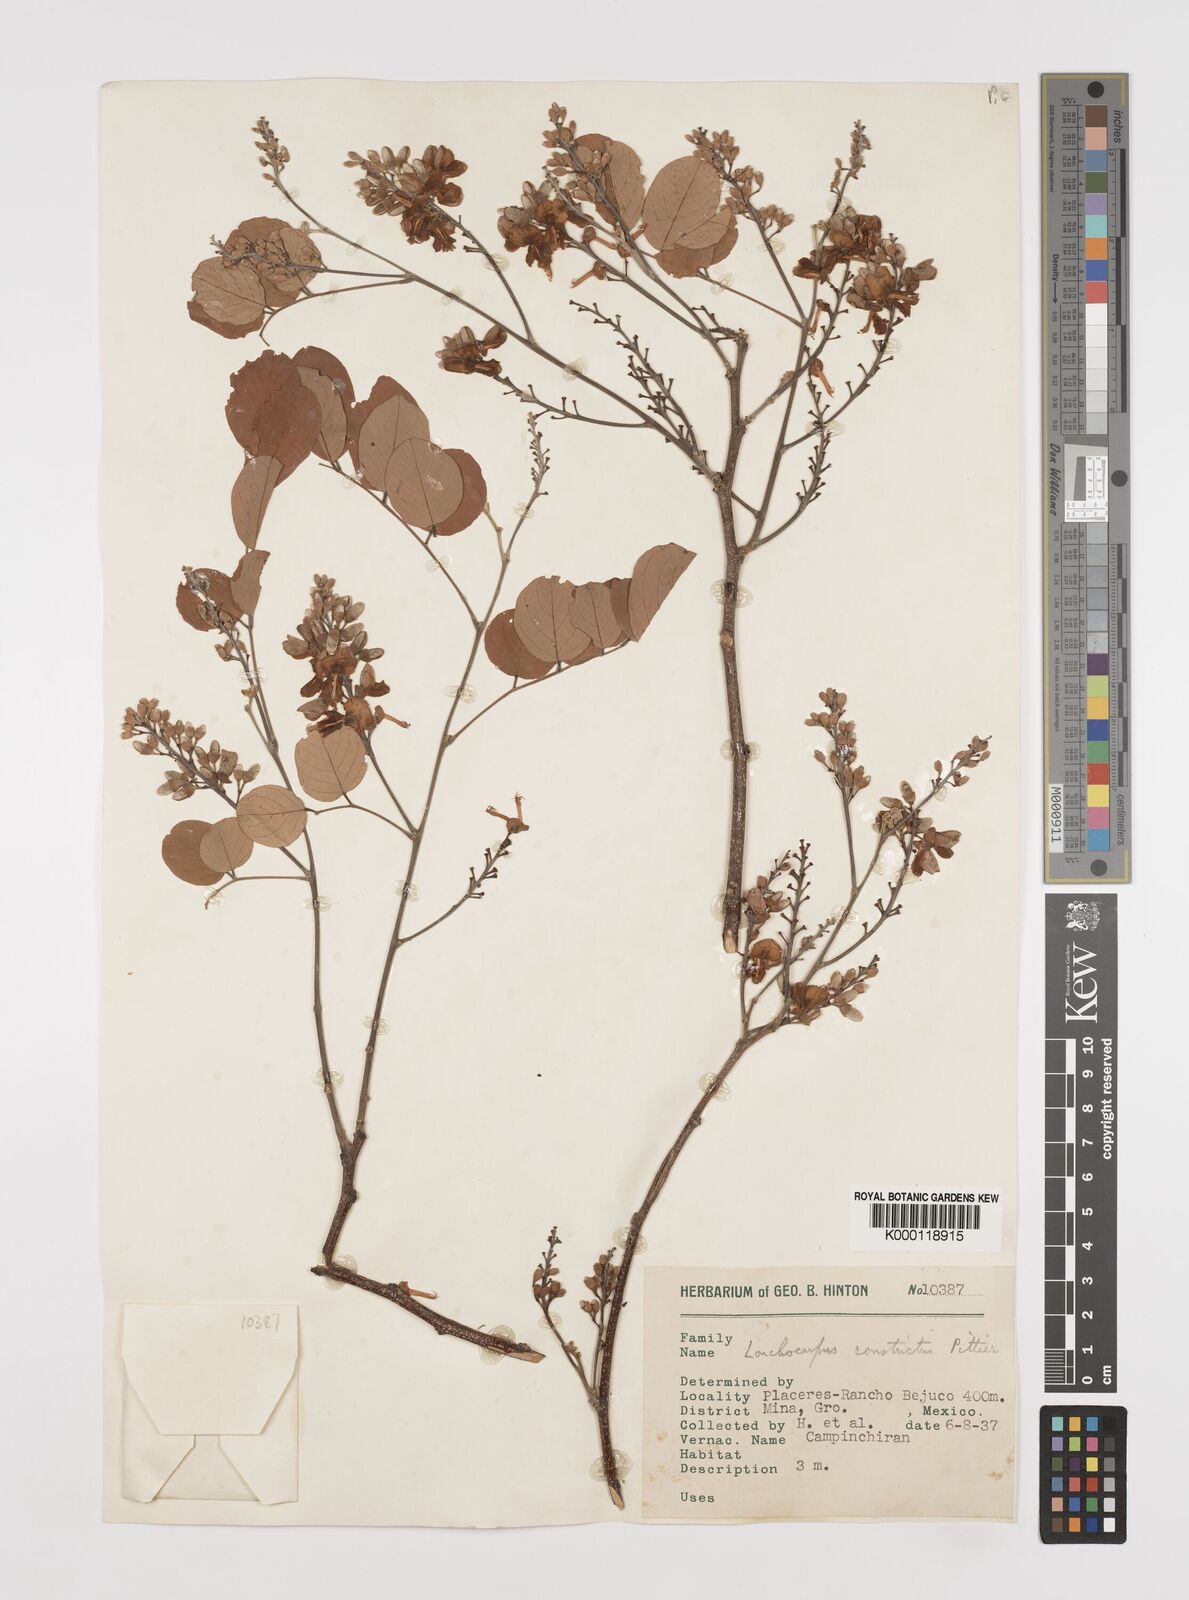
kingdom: Plantae
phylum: Tracheophyta
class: Magnoliopsida
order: Fabales
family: Fabaceae
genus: Lonchocarpus
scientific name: Lonchocarpus constrictus
